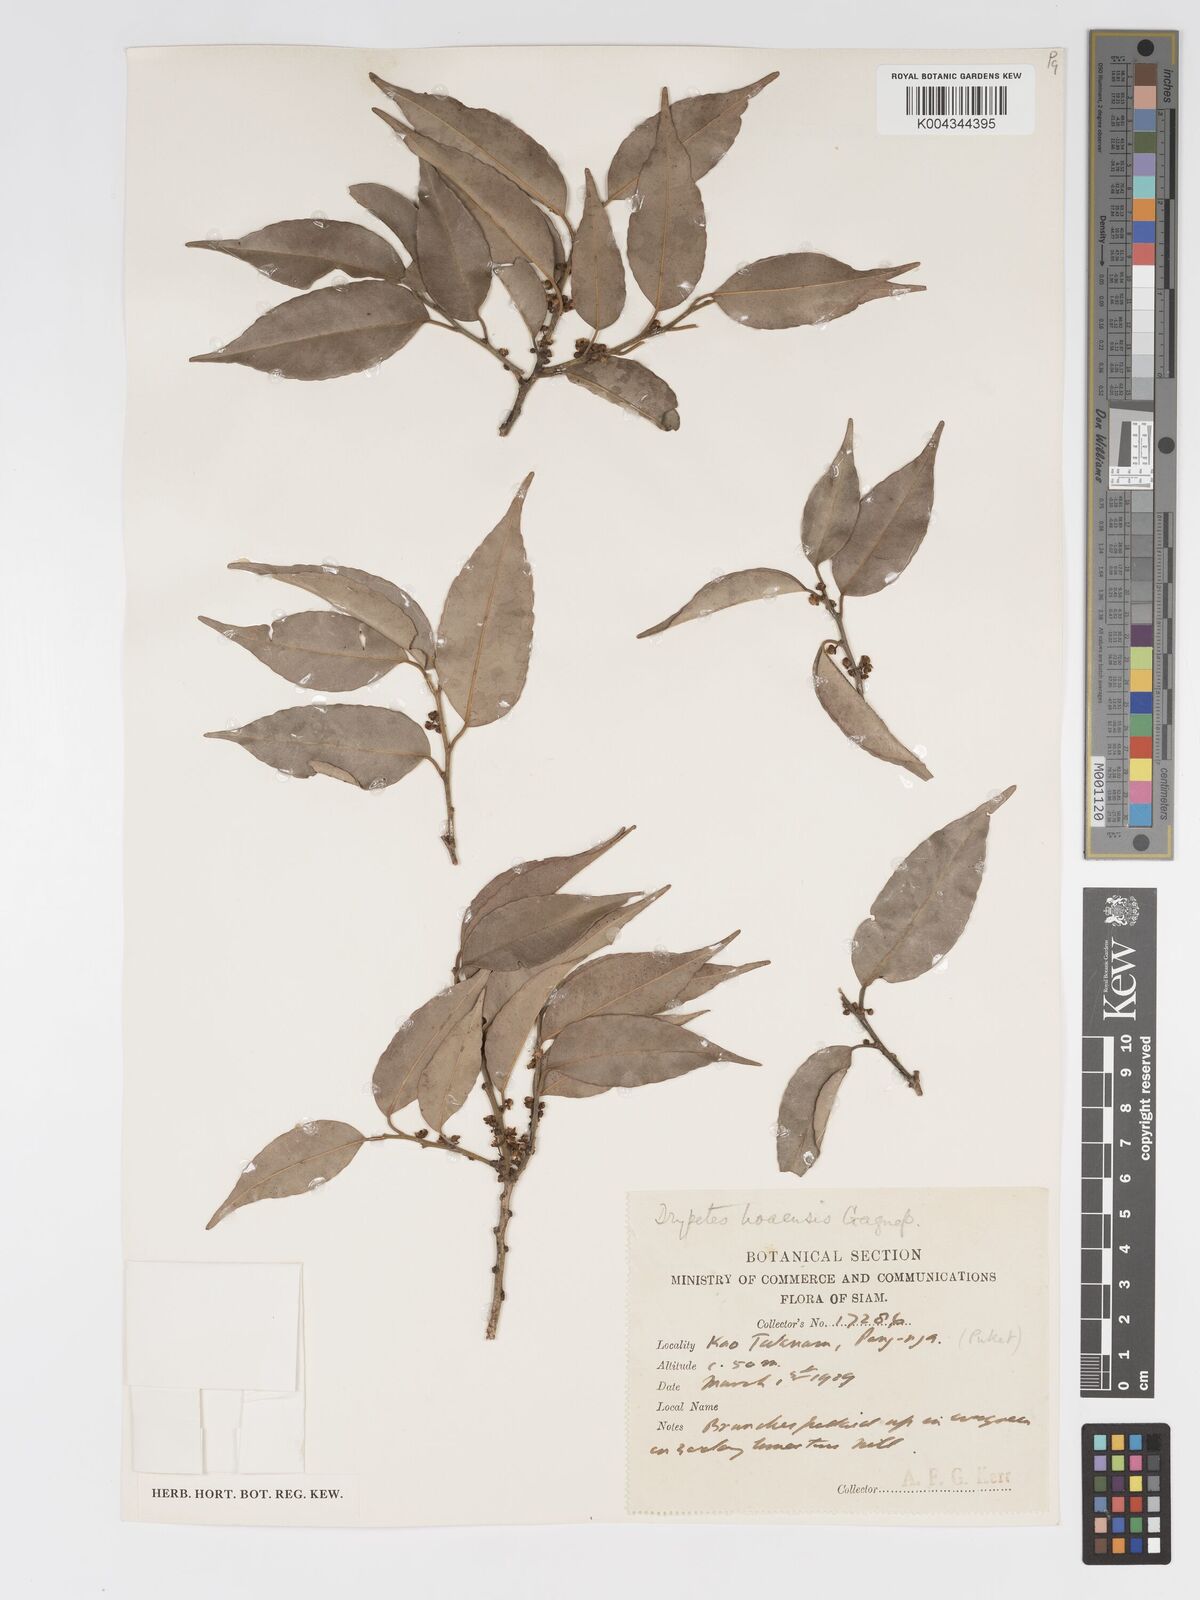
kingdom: Plantae
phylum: Tracheophyta
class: Magnoliopsida
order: Malpighiales
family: Putranjivaceae
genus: Drypetes
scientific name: Drypetes hoaensis
